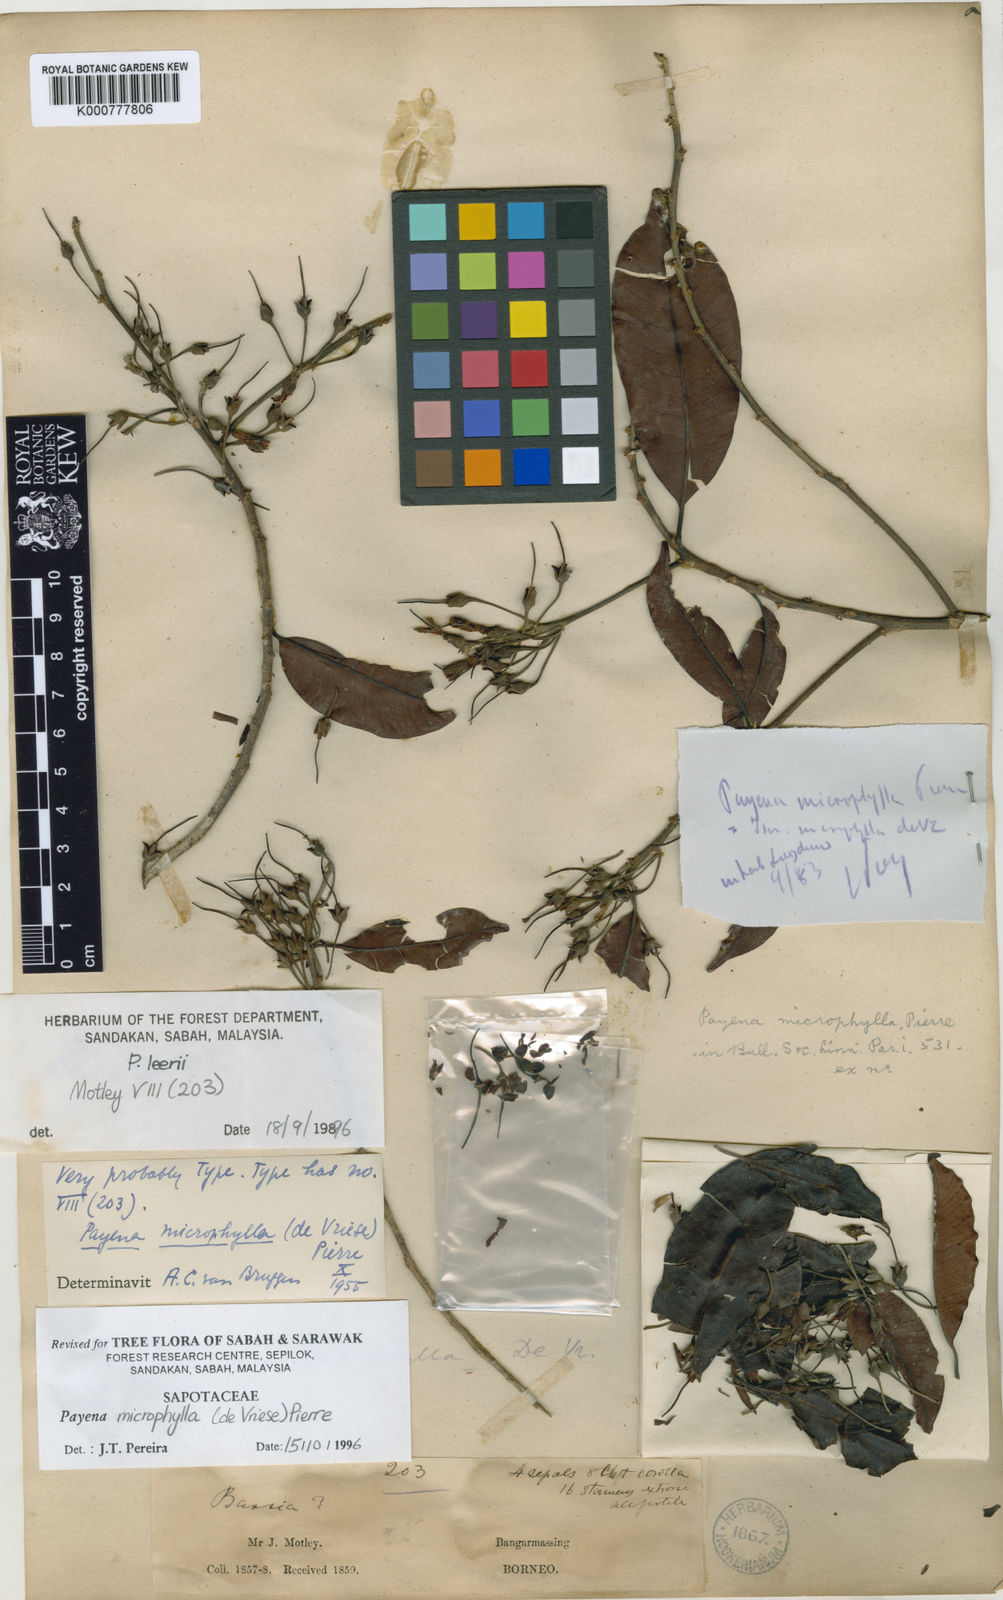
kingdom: Plantae
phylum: Tracheophyta
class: Magnoliopsida
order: Ericales
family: Sapotaceae
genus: Payena
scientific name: Payena microphylla
